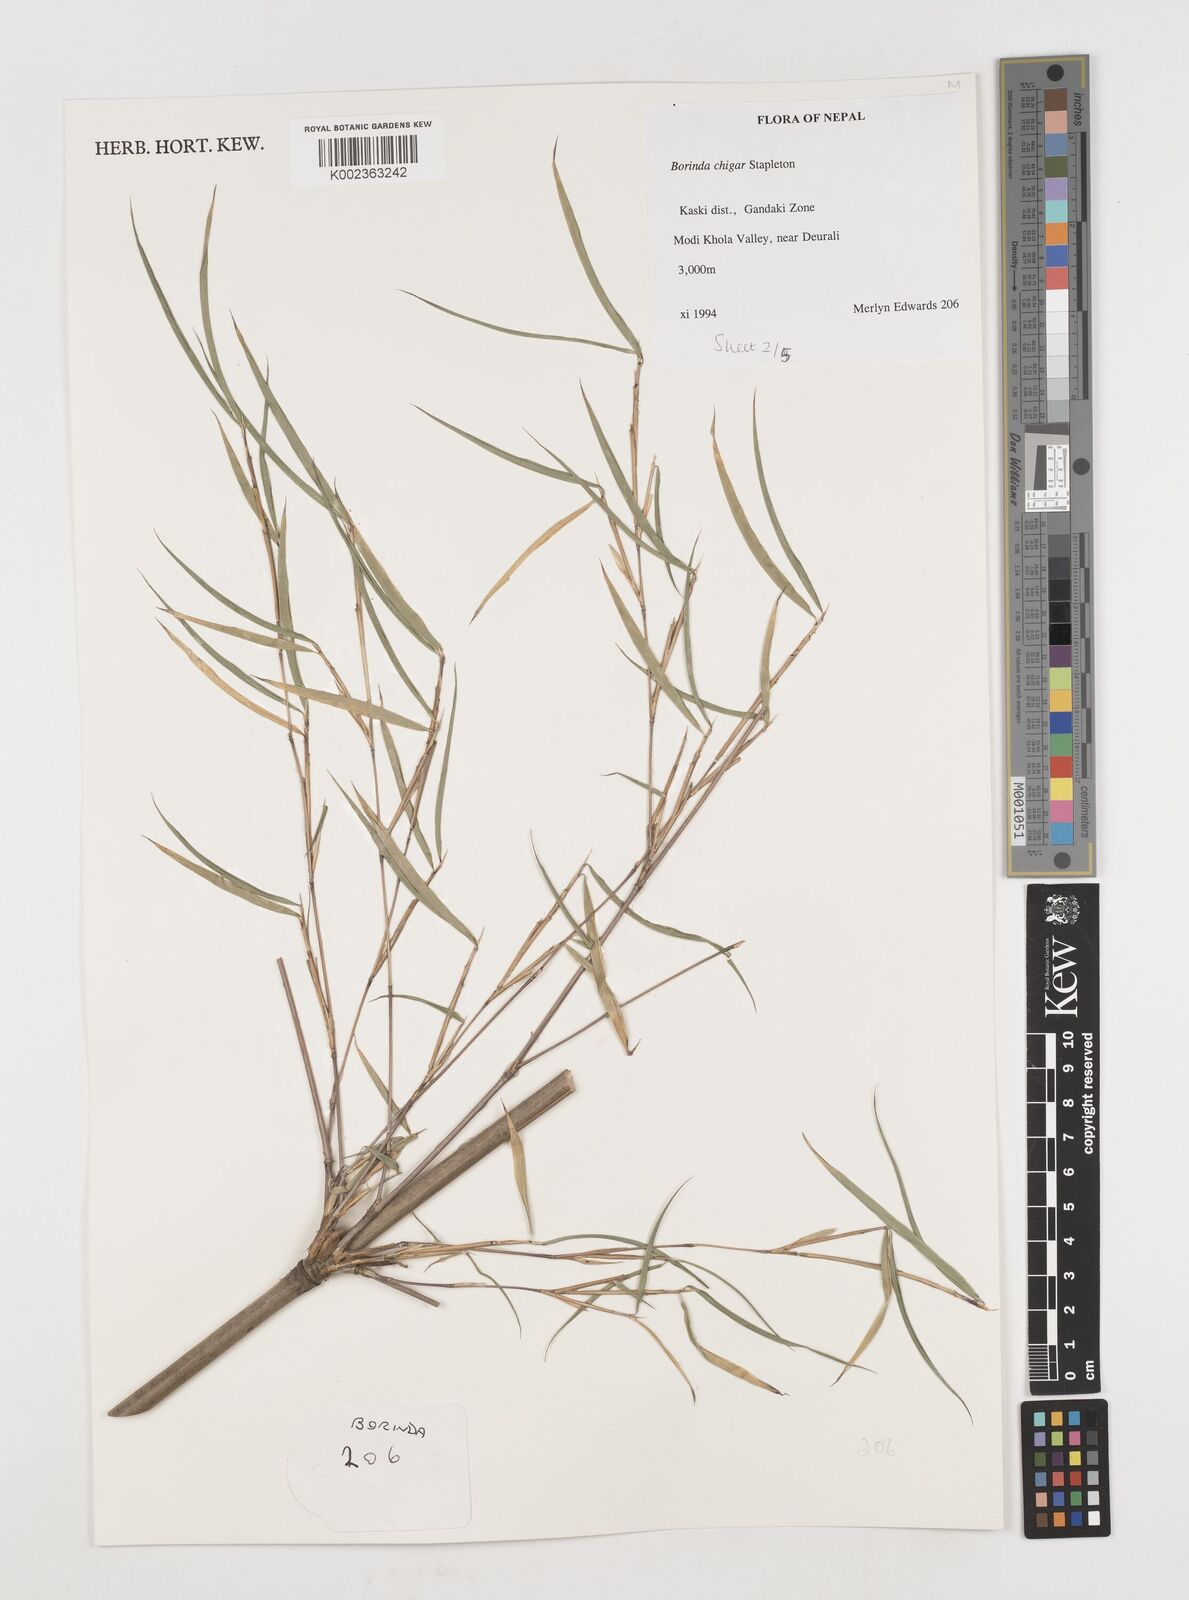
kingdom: Plantae
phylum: Tracheophyta
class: Liliopsida
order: Poales
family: Poaceae
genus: Fargesia
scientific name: Fargesia
